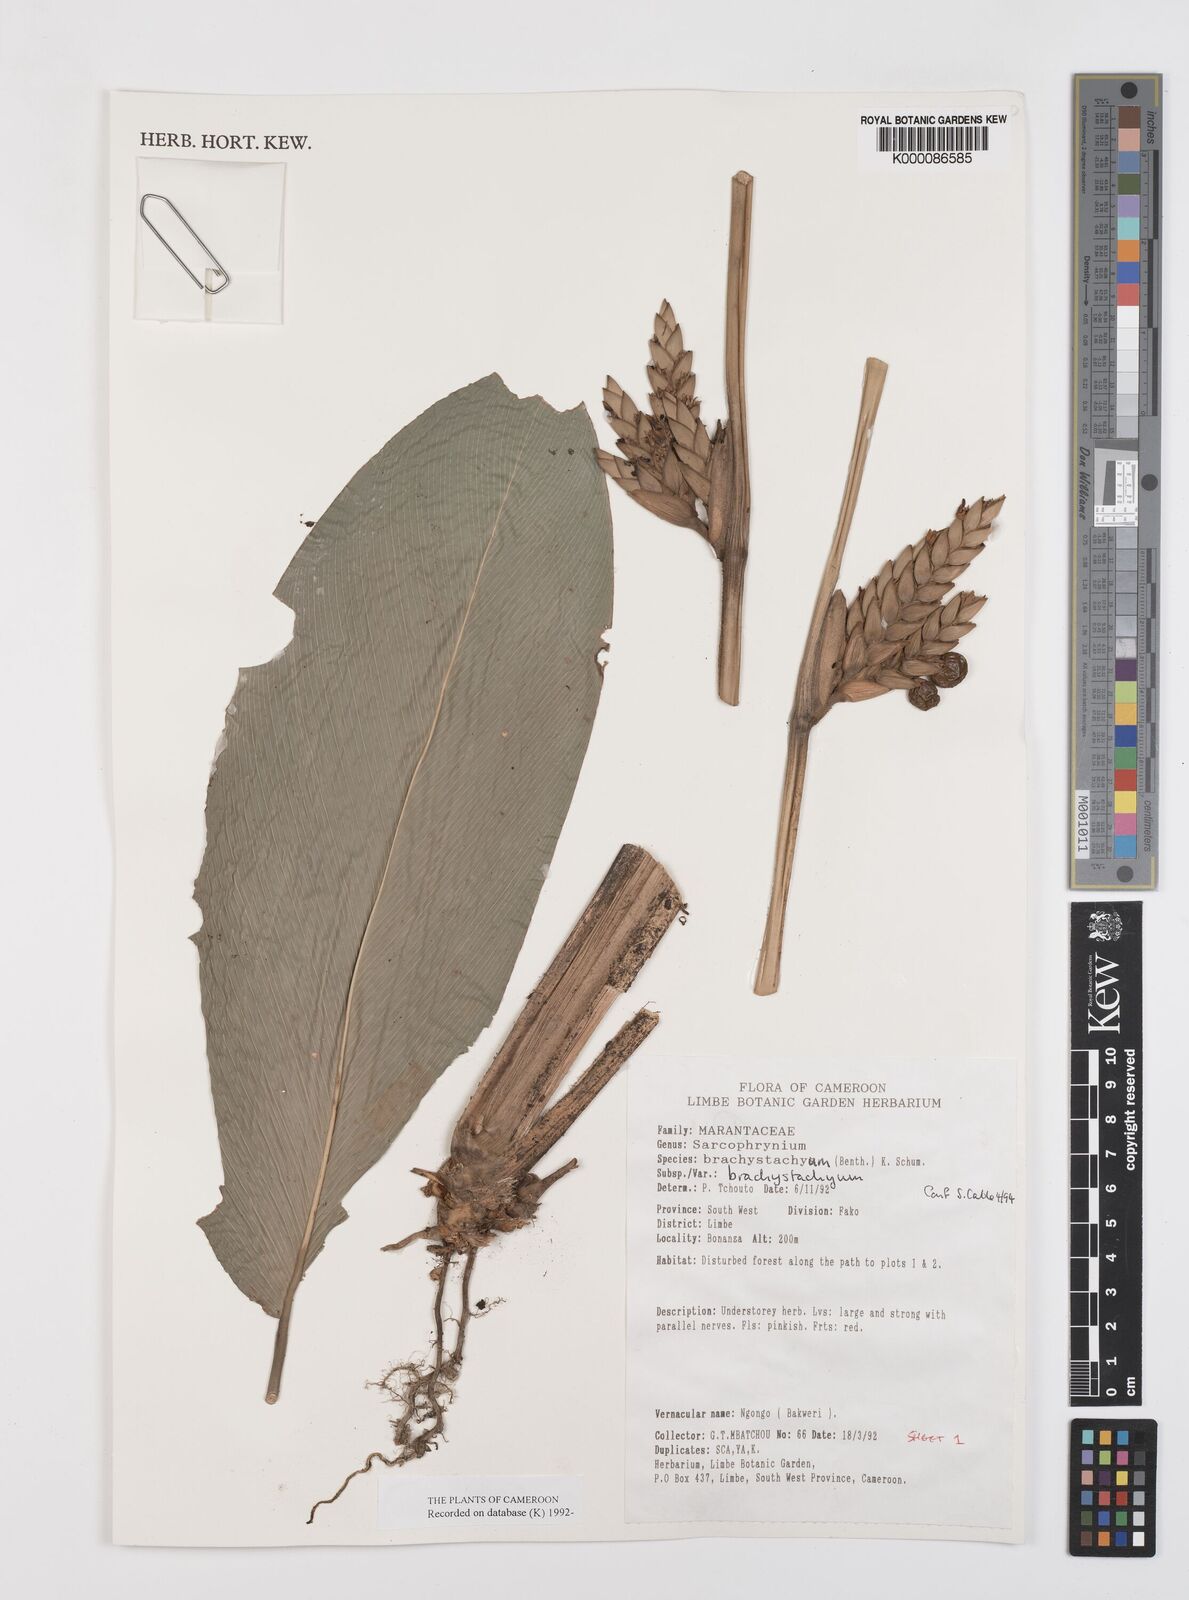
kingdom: Plantae
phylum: Tracheophyta
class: Liliopsida
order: Zingiberales
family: Marantaceae
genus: Sarcophrynium
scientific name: Sarcophrynium
